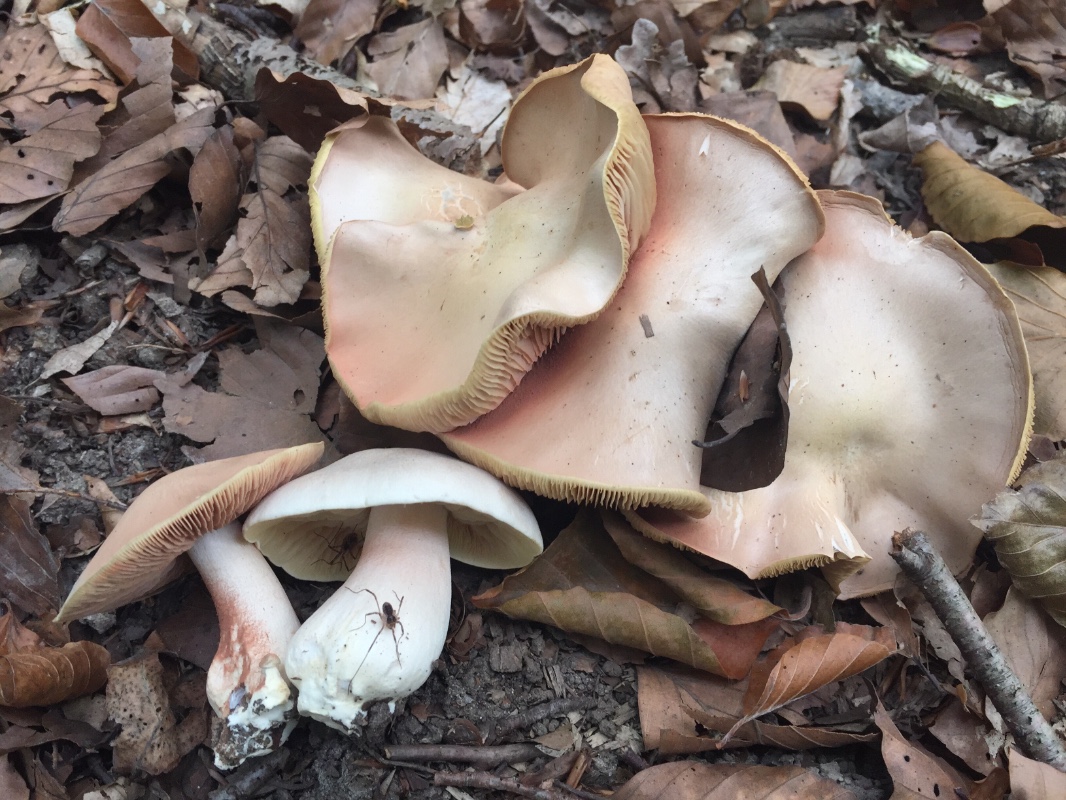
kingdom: Fungi
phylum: Basidiomycota
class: Agaricomycetes
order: Agaricales
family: Entolomataceae
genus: Entoloma
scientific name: Entoloma sinuatum
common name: giftig rødblad
